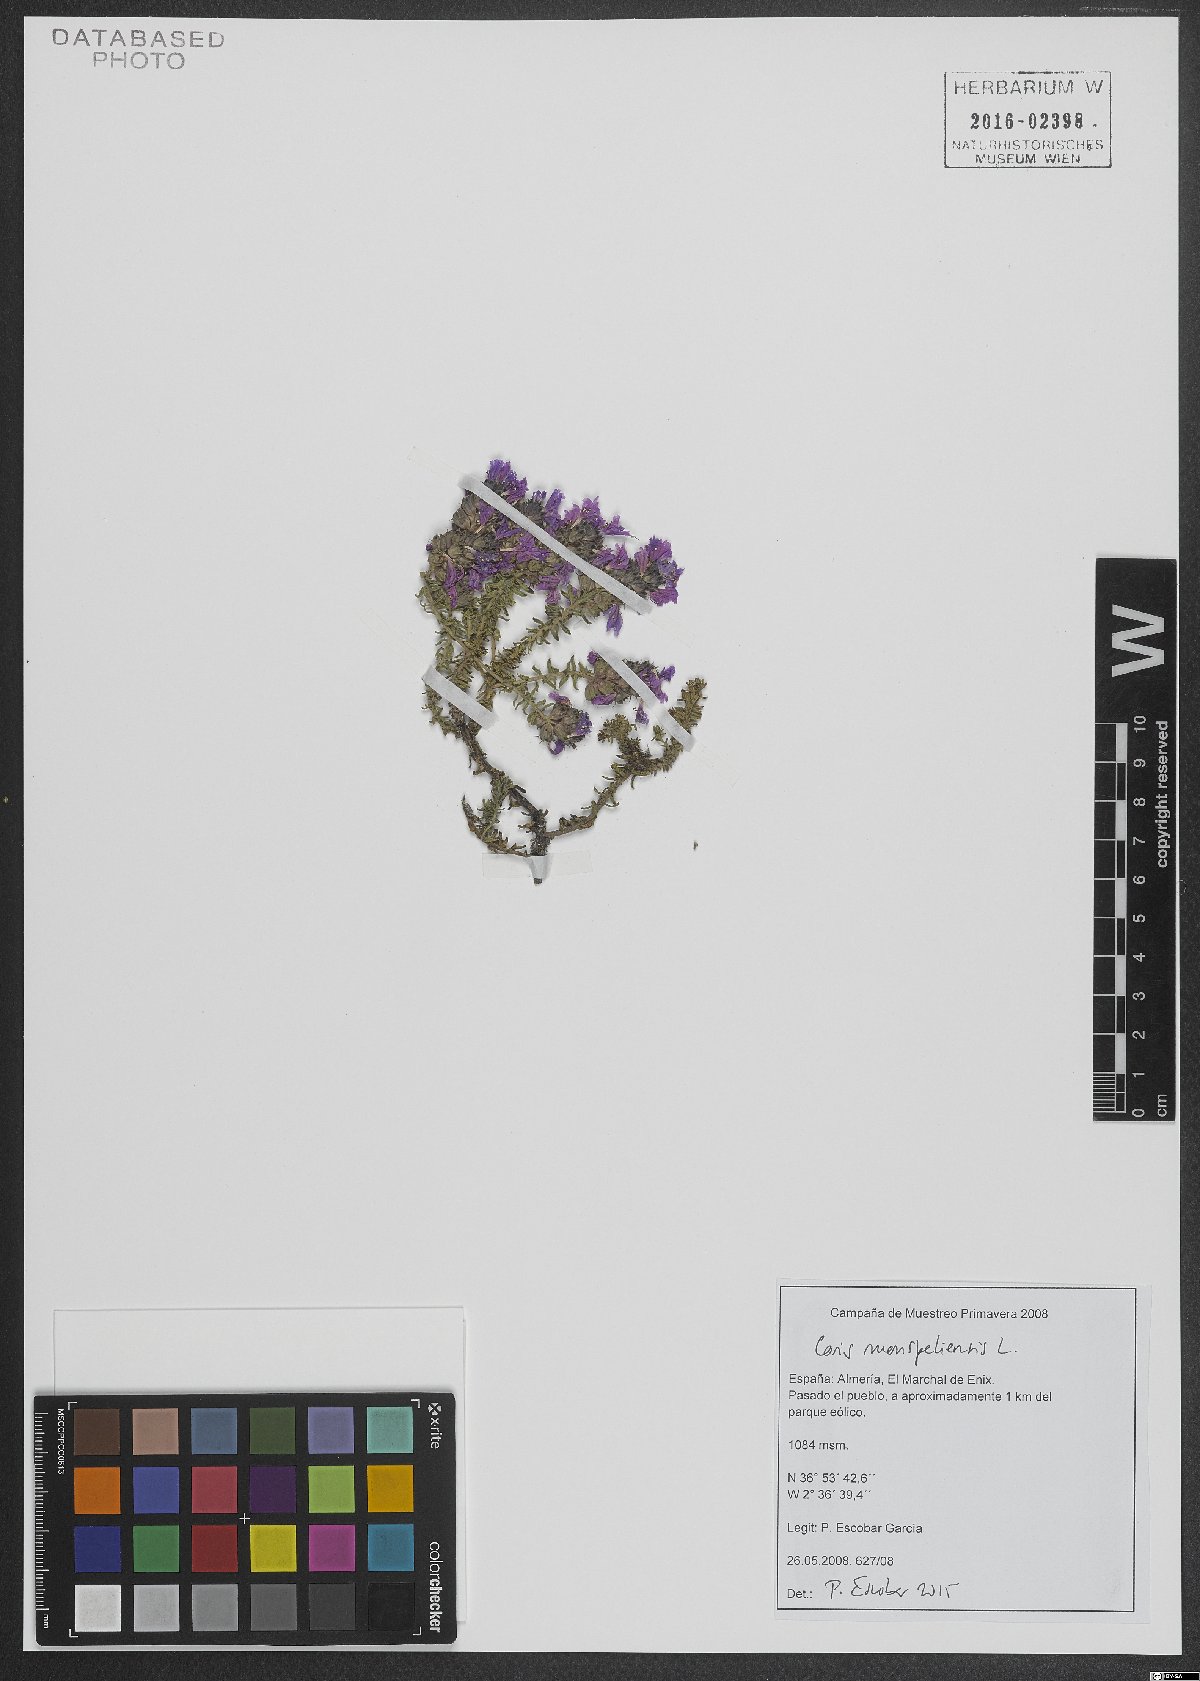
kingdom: Plantae
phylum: Tracheophyta
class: Magnoliopsida
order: Ericales
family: Primulaceae
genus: Coris
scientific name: Coris monspeliensis
